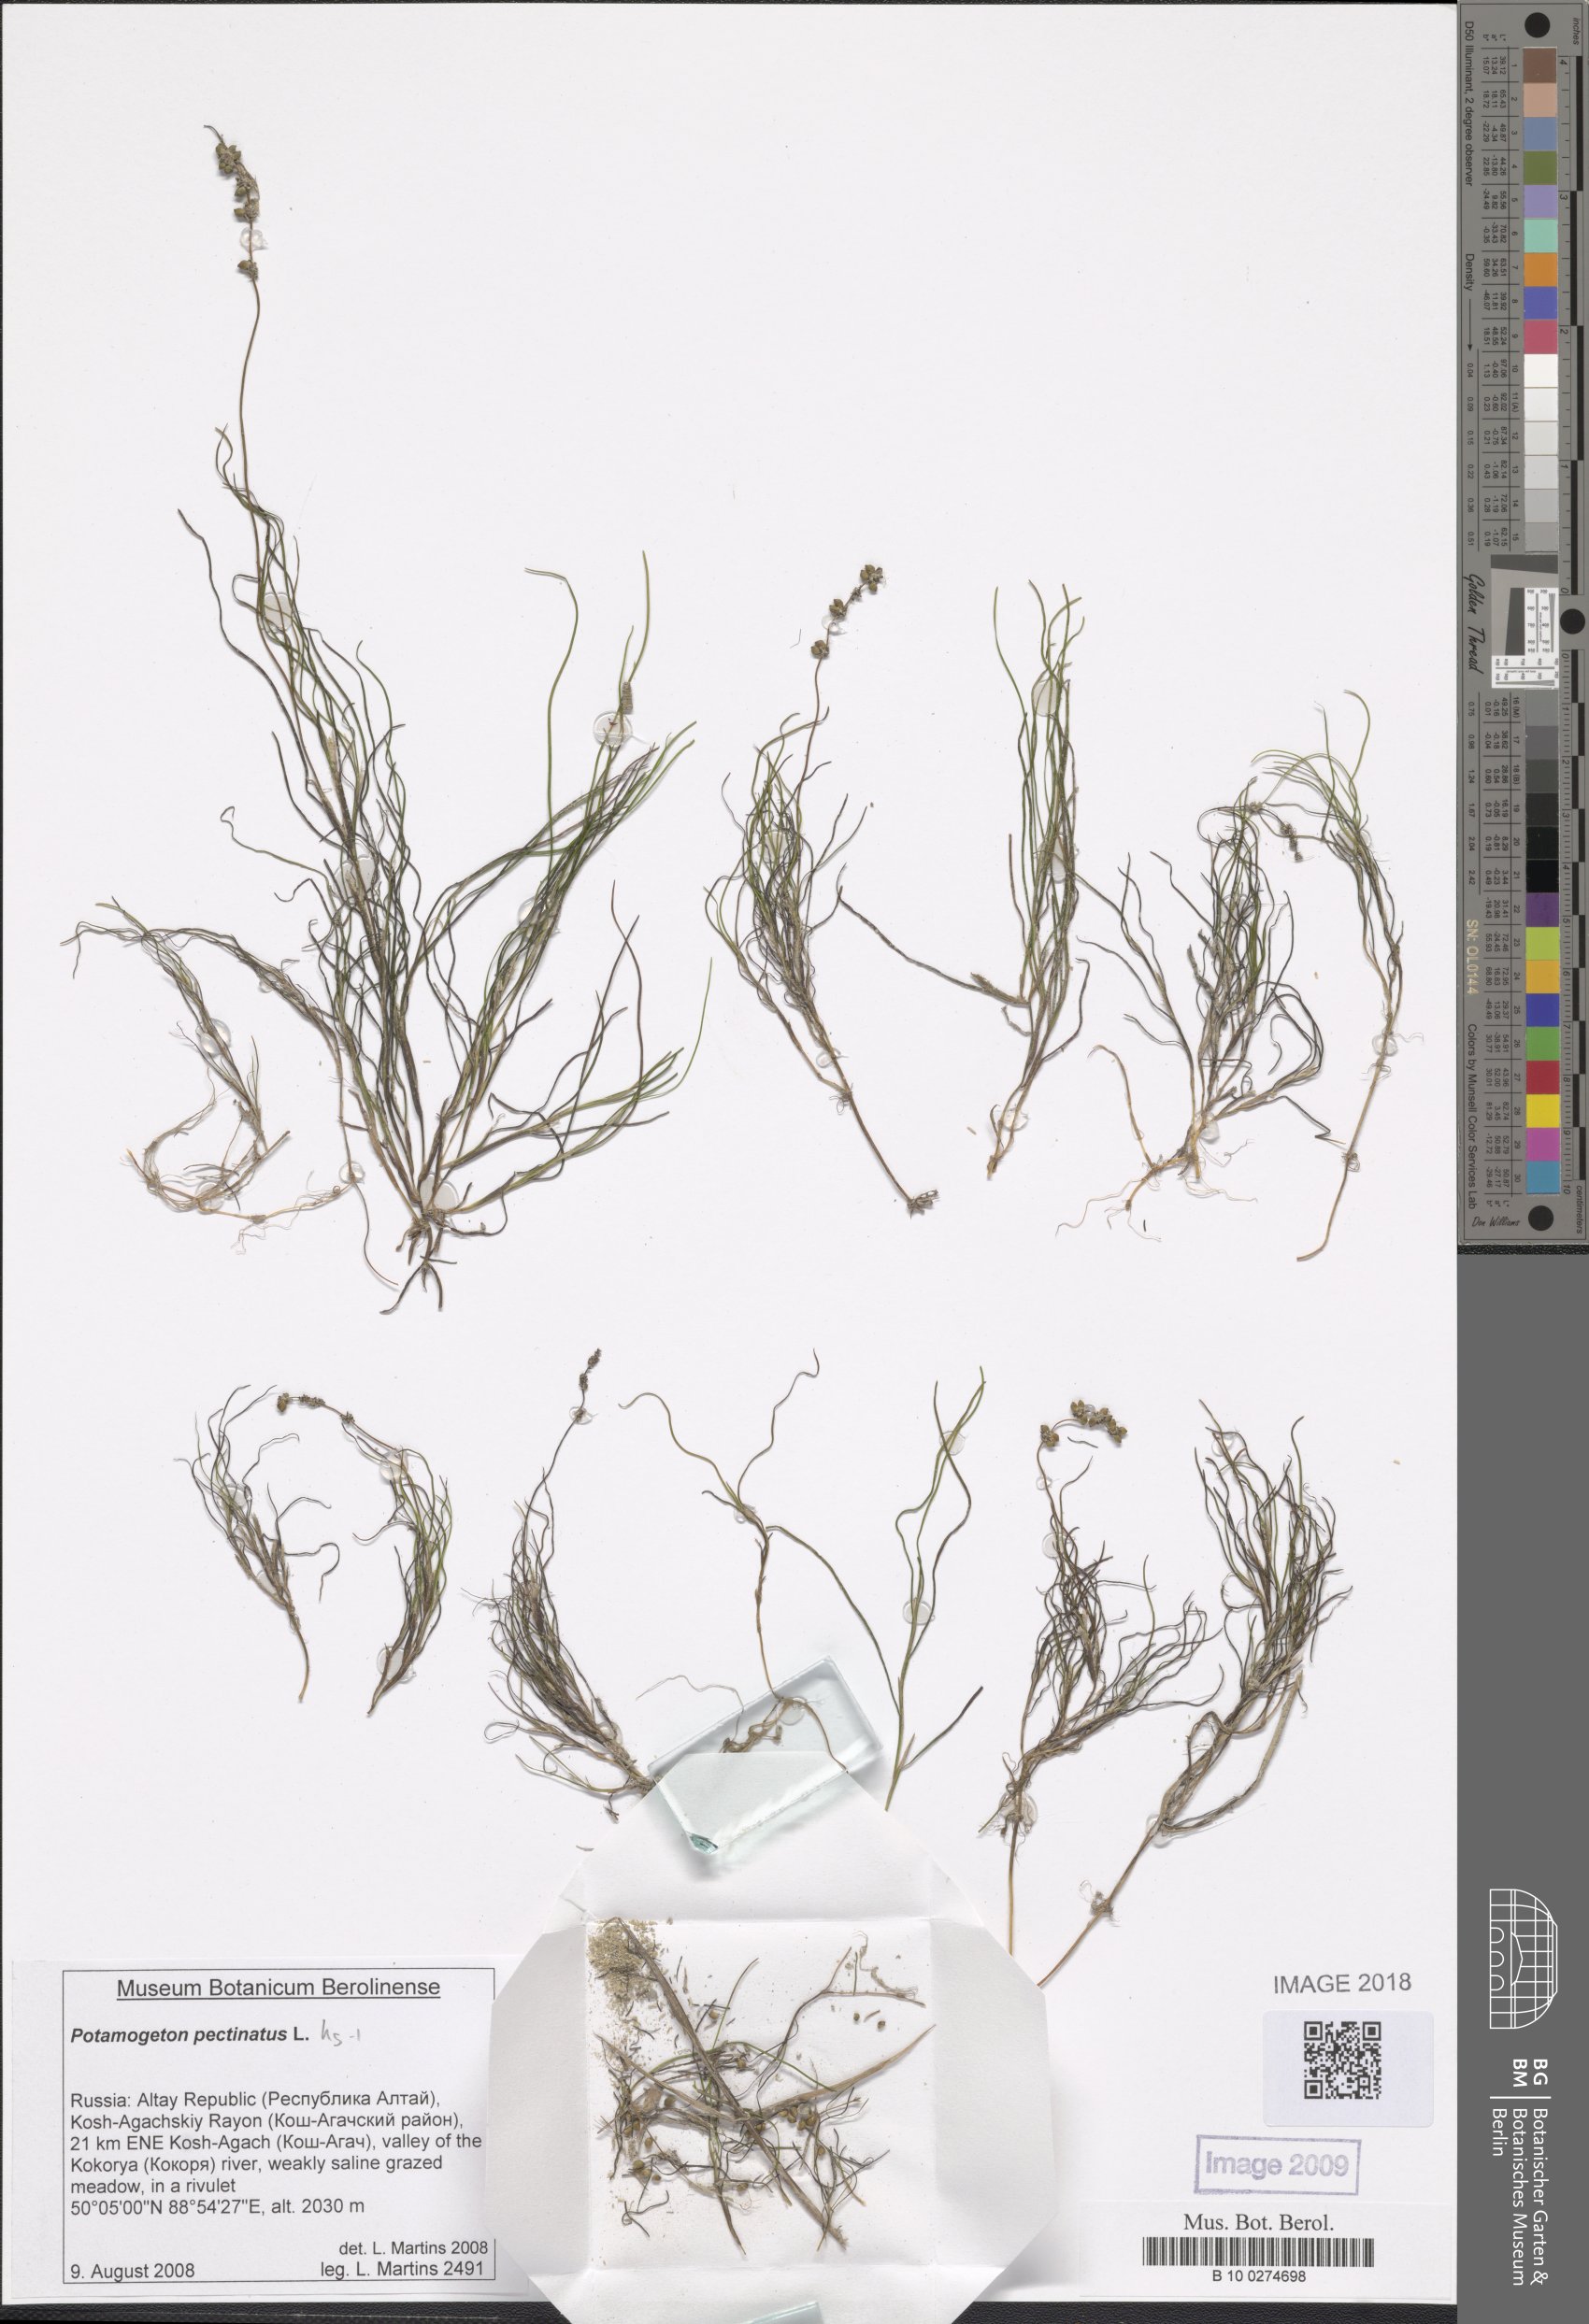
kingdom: Plantae
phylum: Tracheophyta
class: Liliopsida
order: Alismatales
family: Potamogetonaceae
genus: Stuckenia
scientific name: Stuckenia pectinata
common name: Sago pondweed
